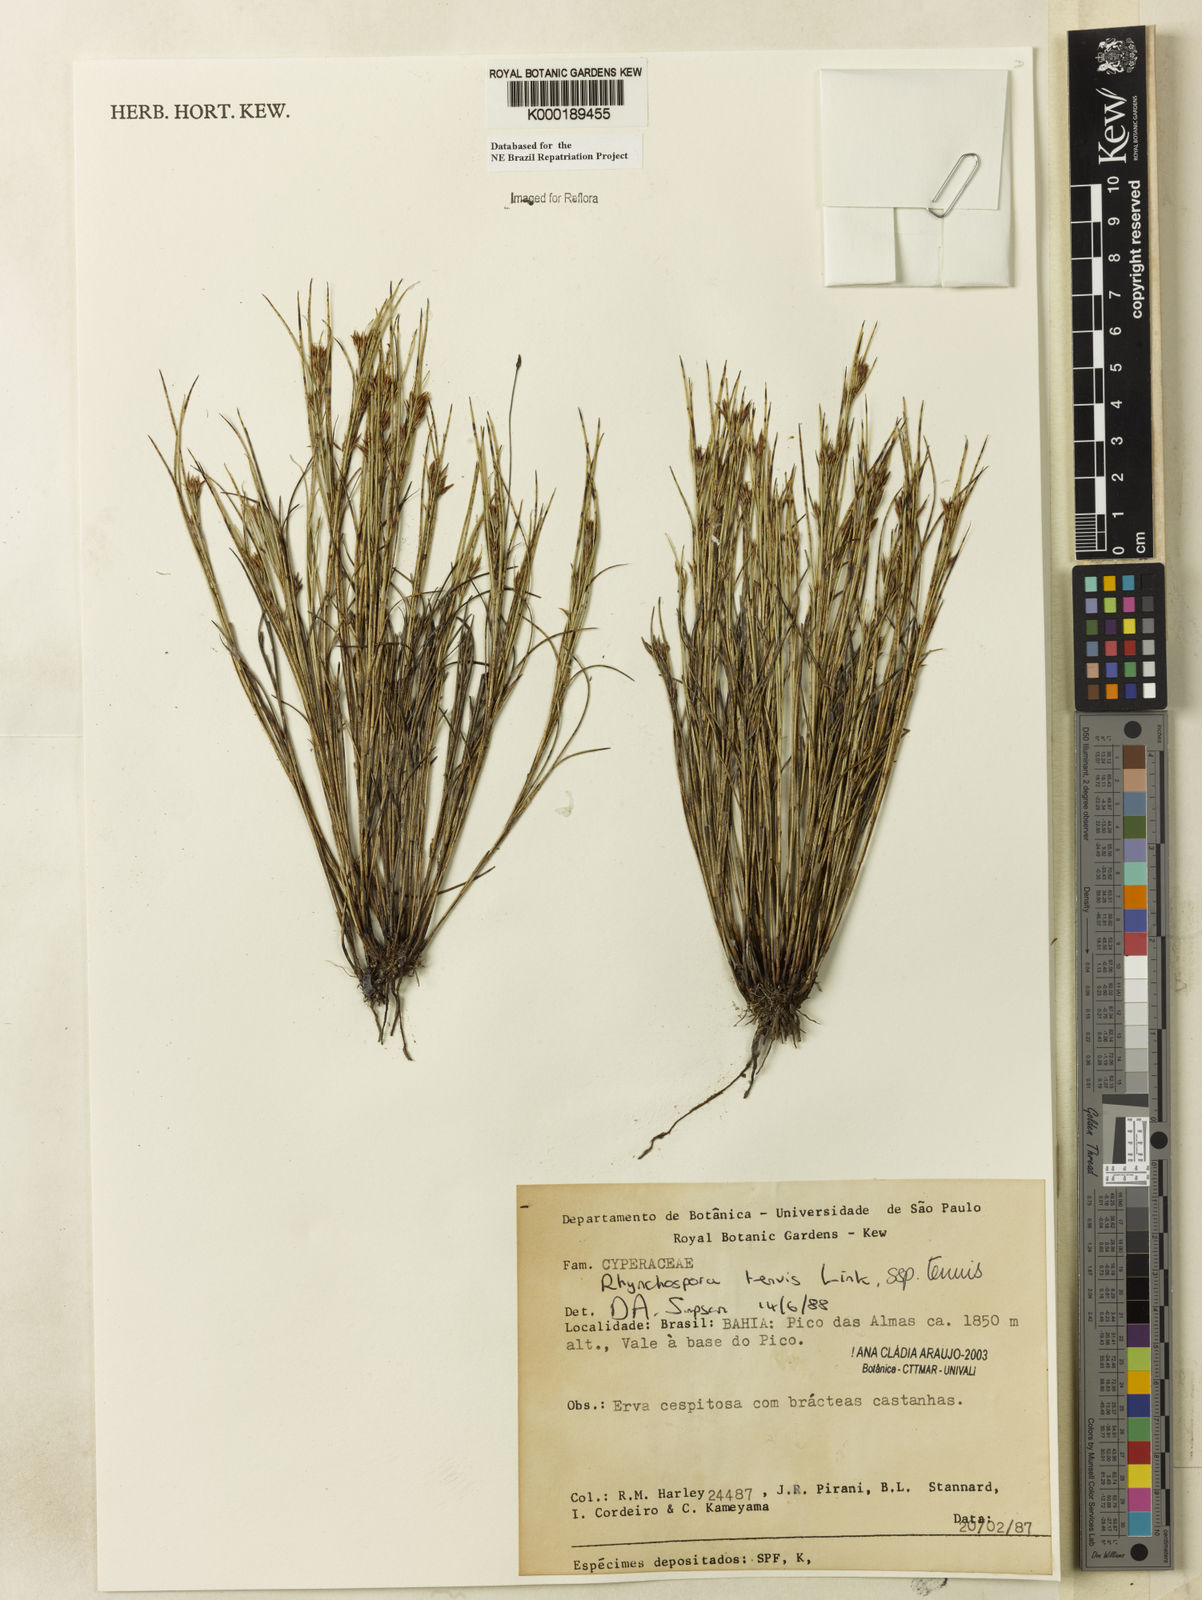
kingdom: Plantae
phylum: Tracheophyta
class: Liliopsida
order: Poales
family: Cyperaceae
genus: Rhynchospora
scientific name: Rhynchospora tenuis
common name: Quill beaksedge
